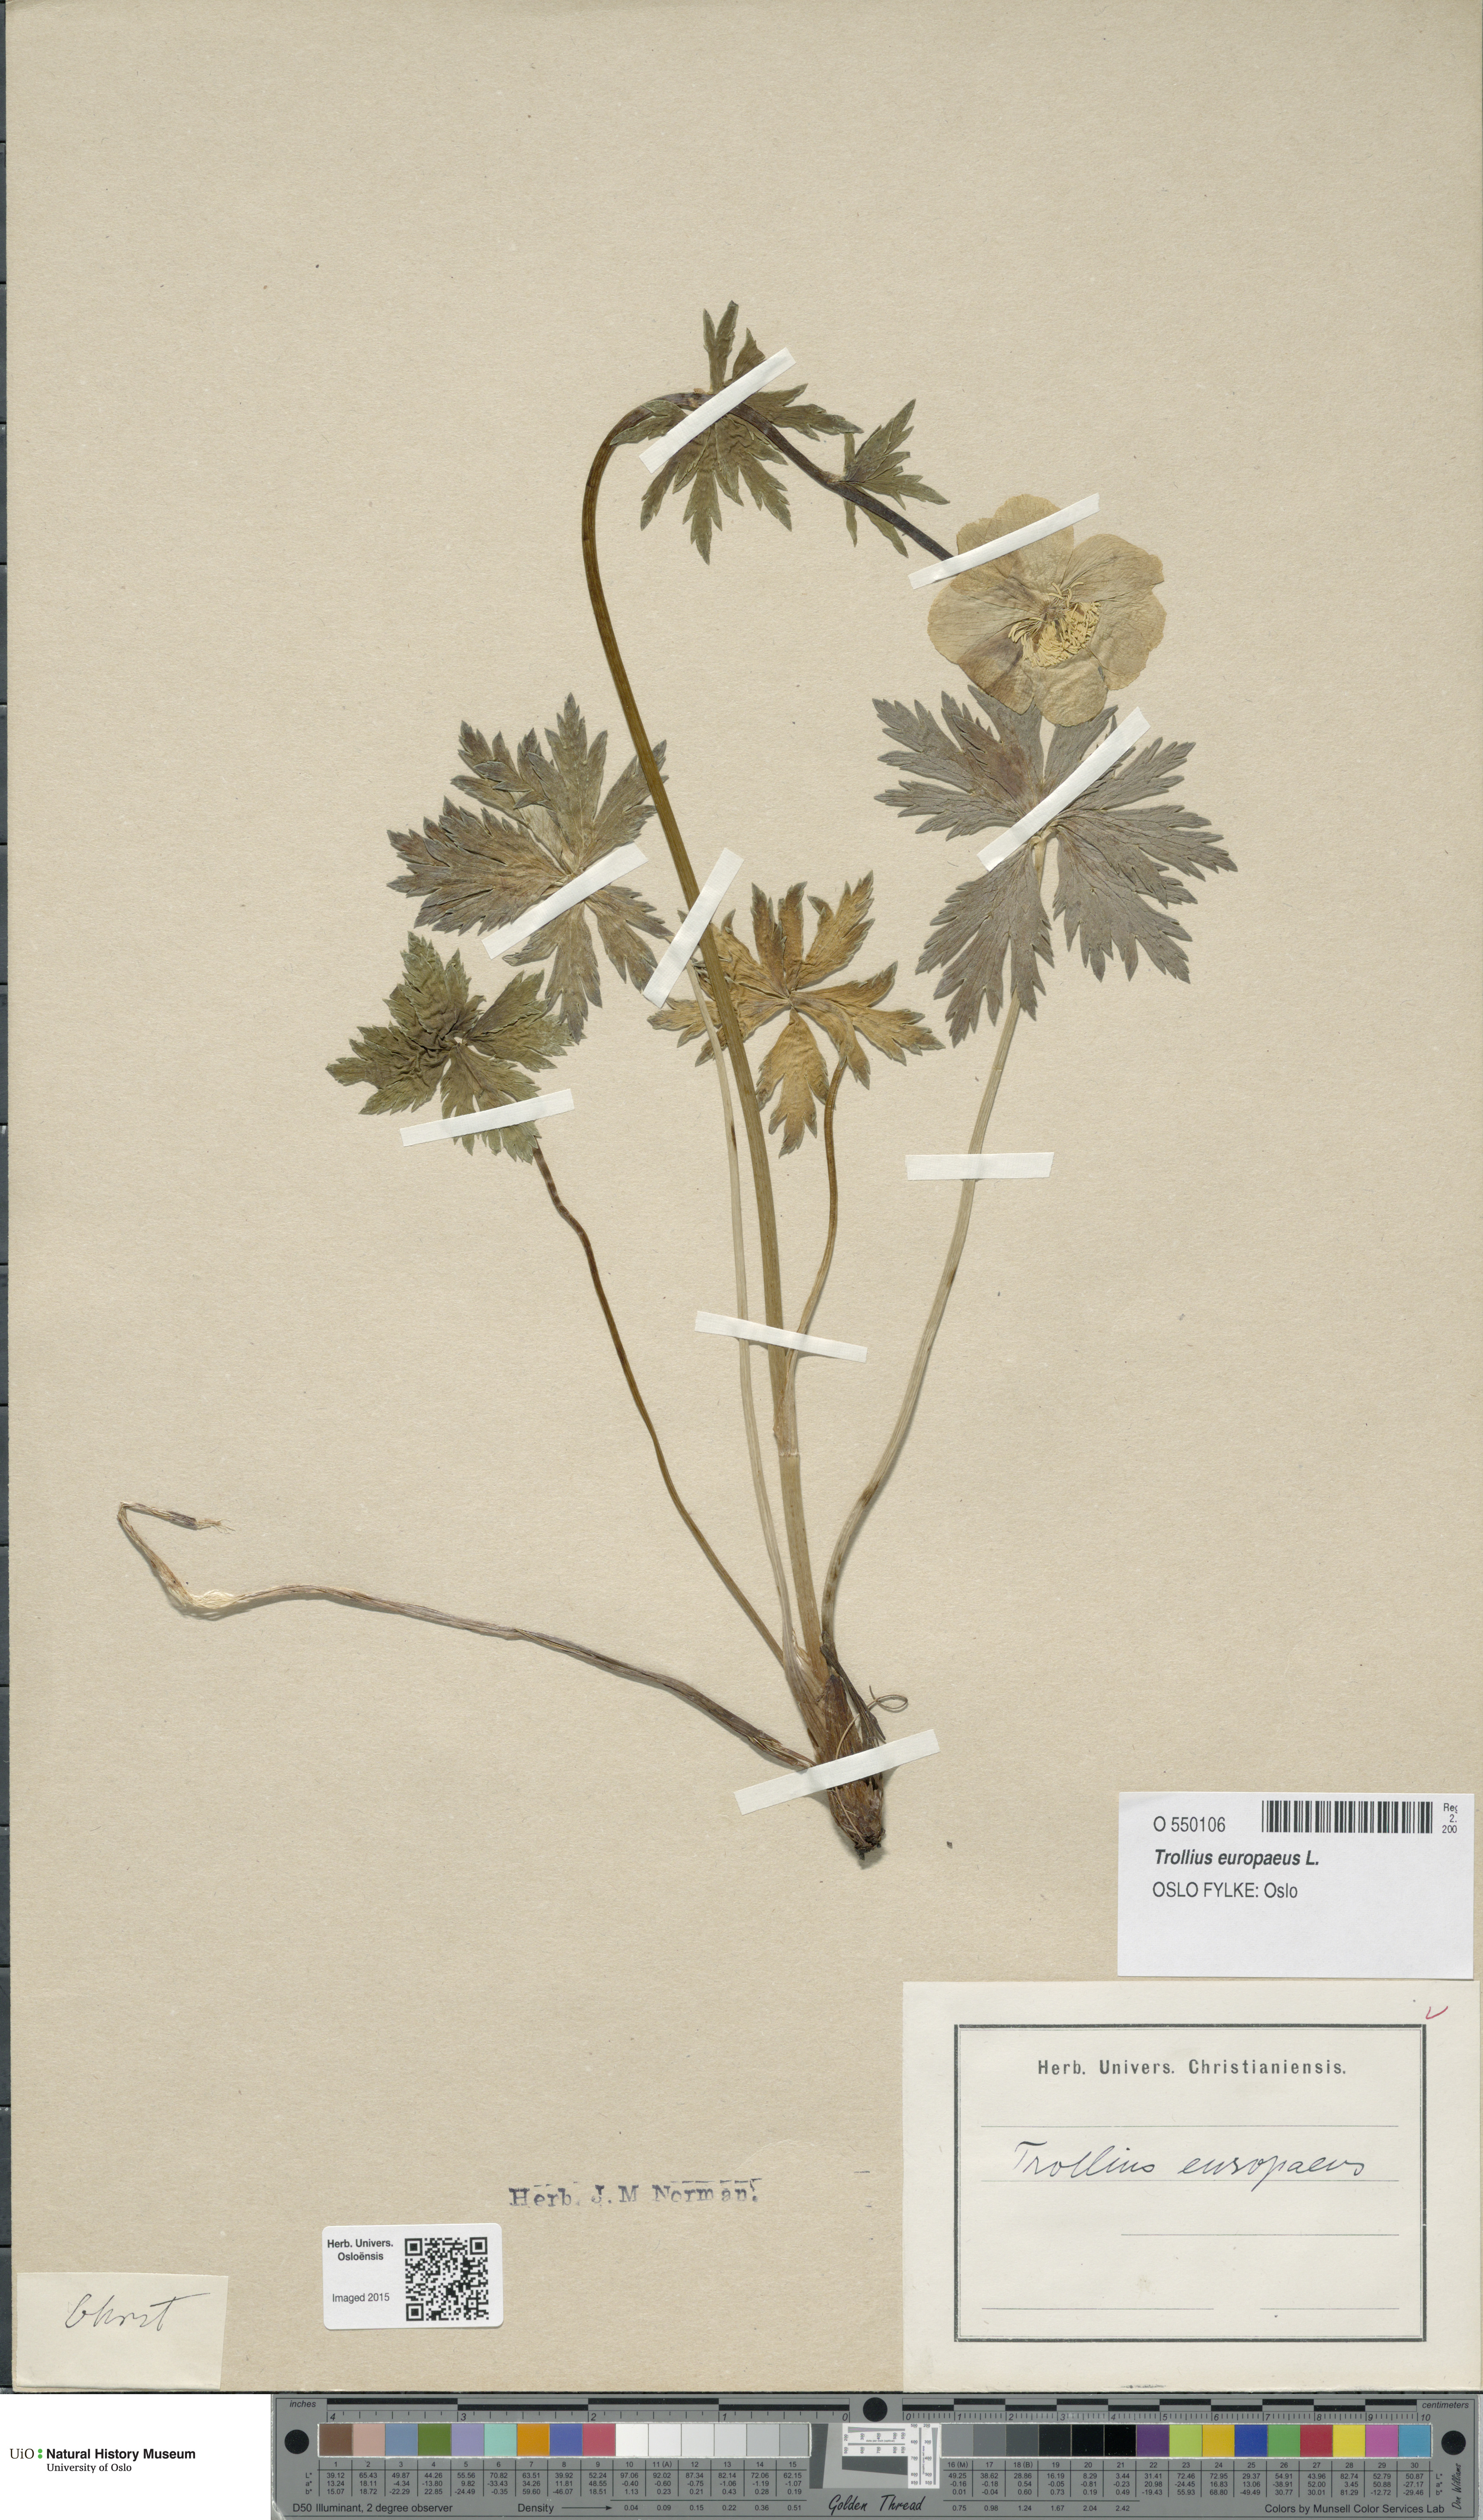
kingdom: Plantae
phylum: Tracheophyta
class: Magnoliopsida
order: Ranunculales
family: Ranunculaceae
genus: Trollius
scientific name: Trollius europaeus
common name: European globeflower
